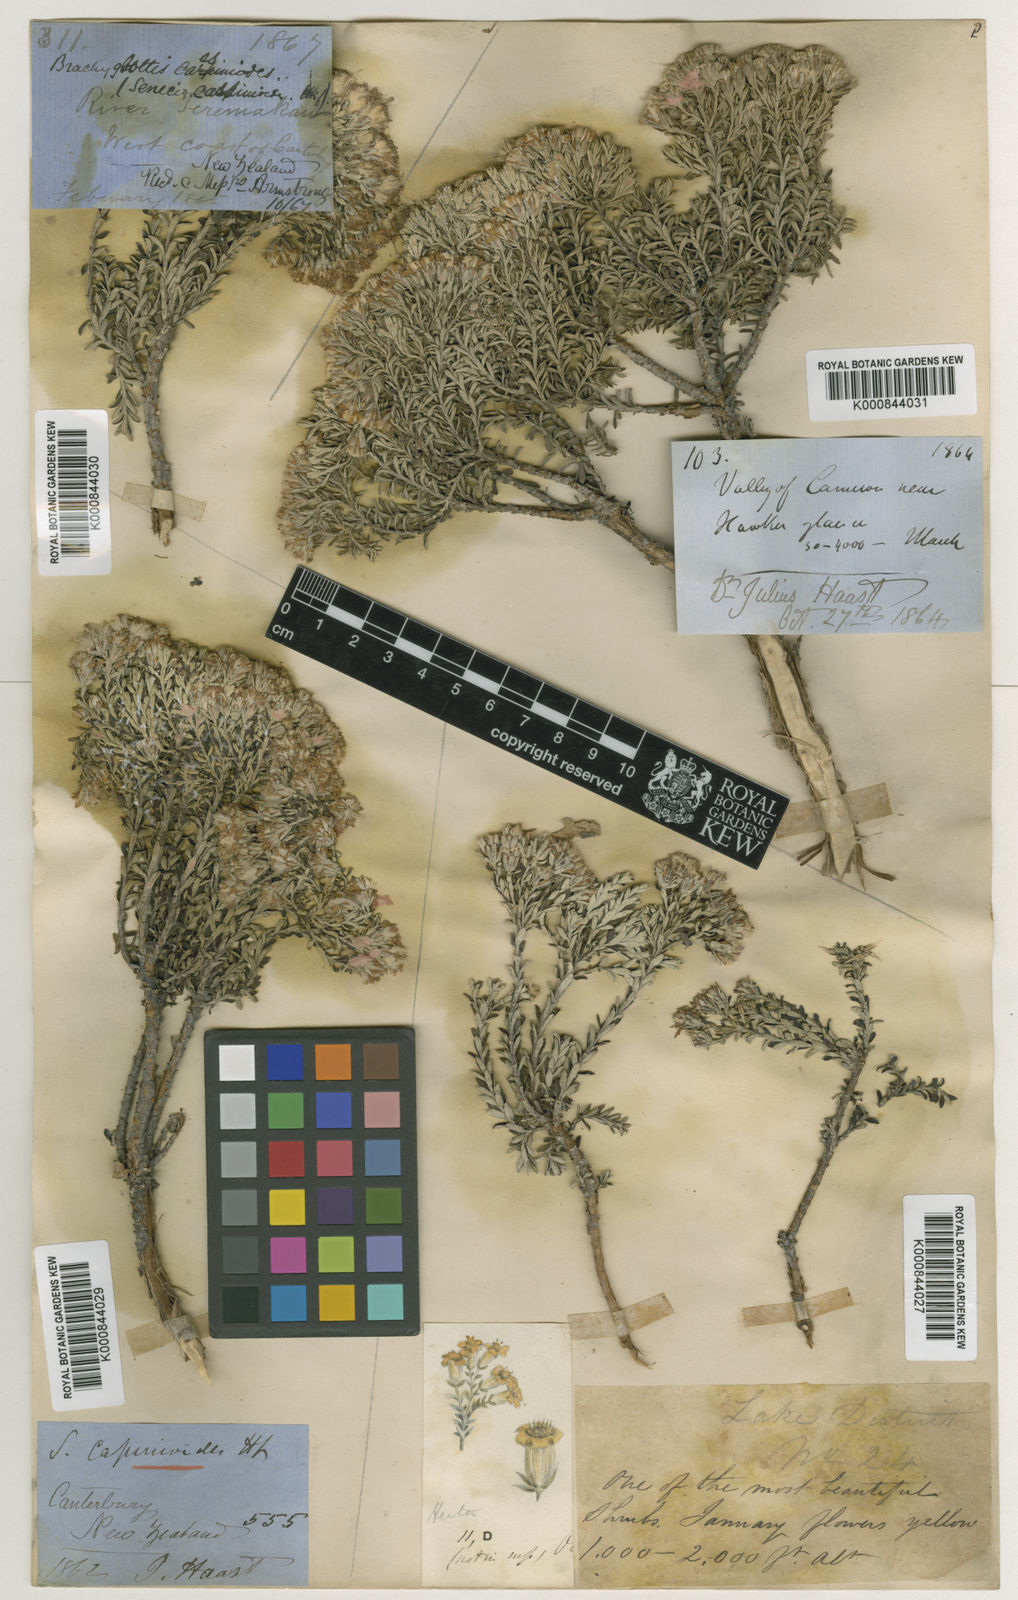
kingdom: Plantae
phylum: Tracheophyta
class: Magnoliopsida
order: Asterales
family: Asteraceae
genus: Brachyglottis
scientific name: Brachyglottis cassinioides
